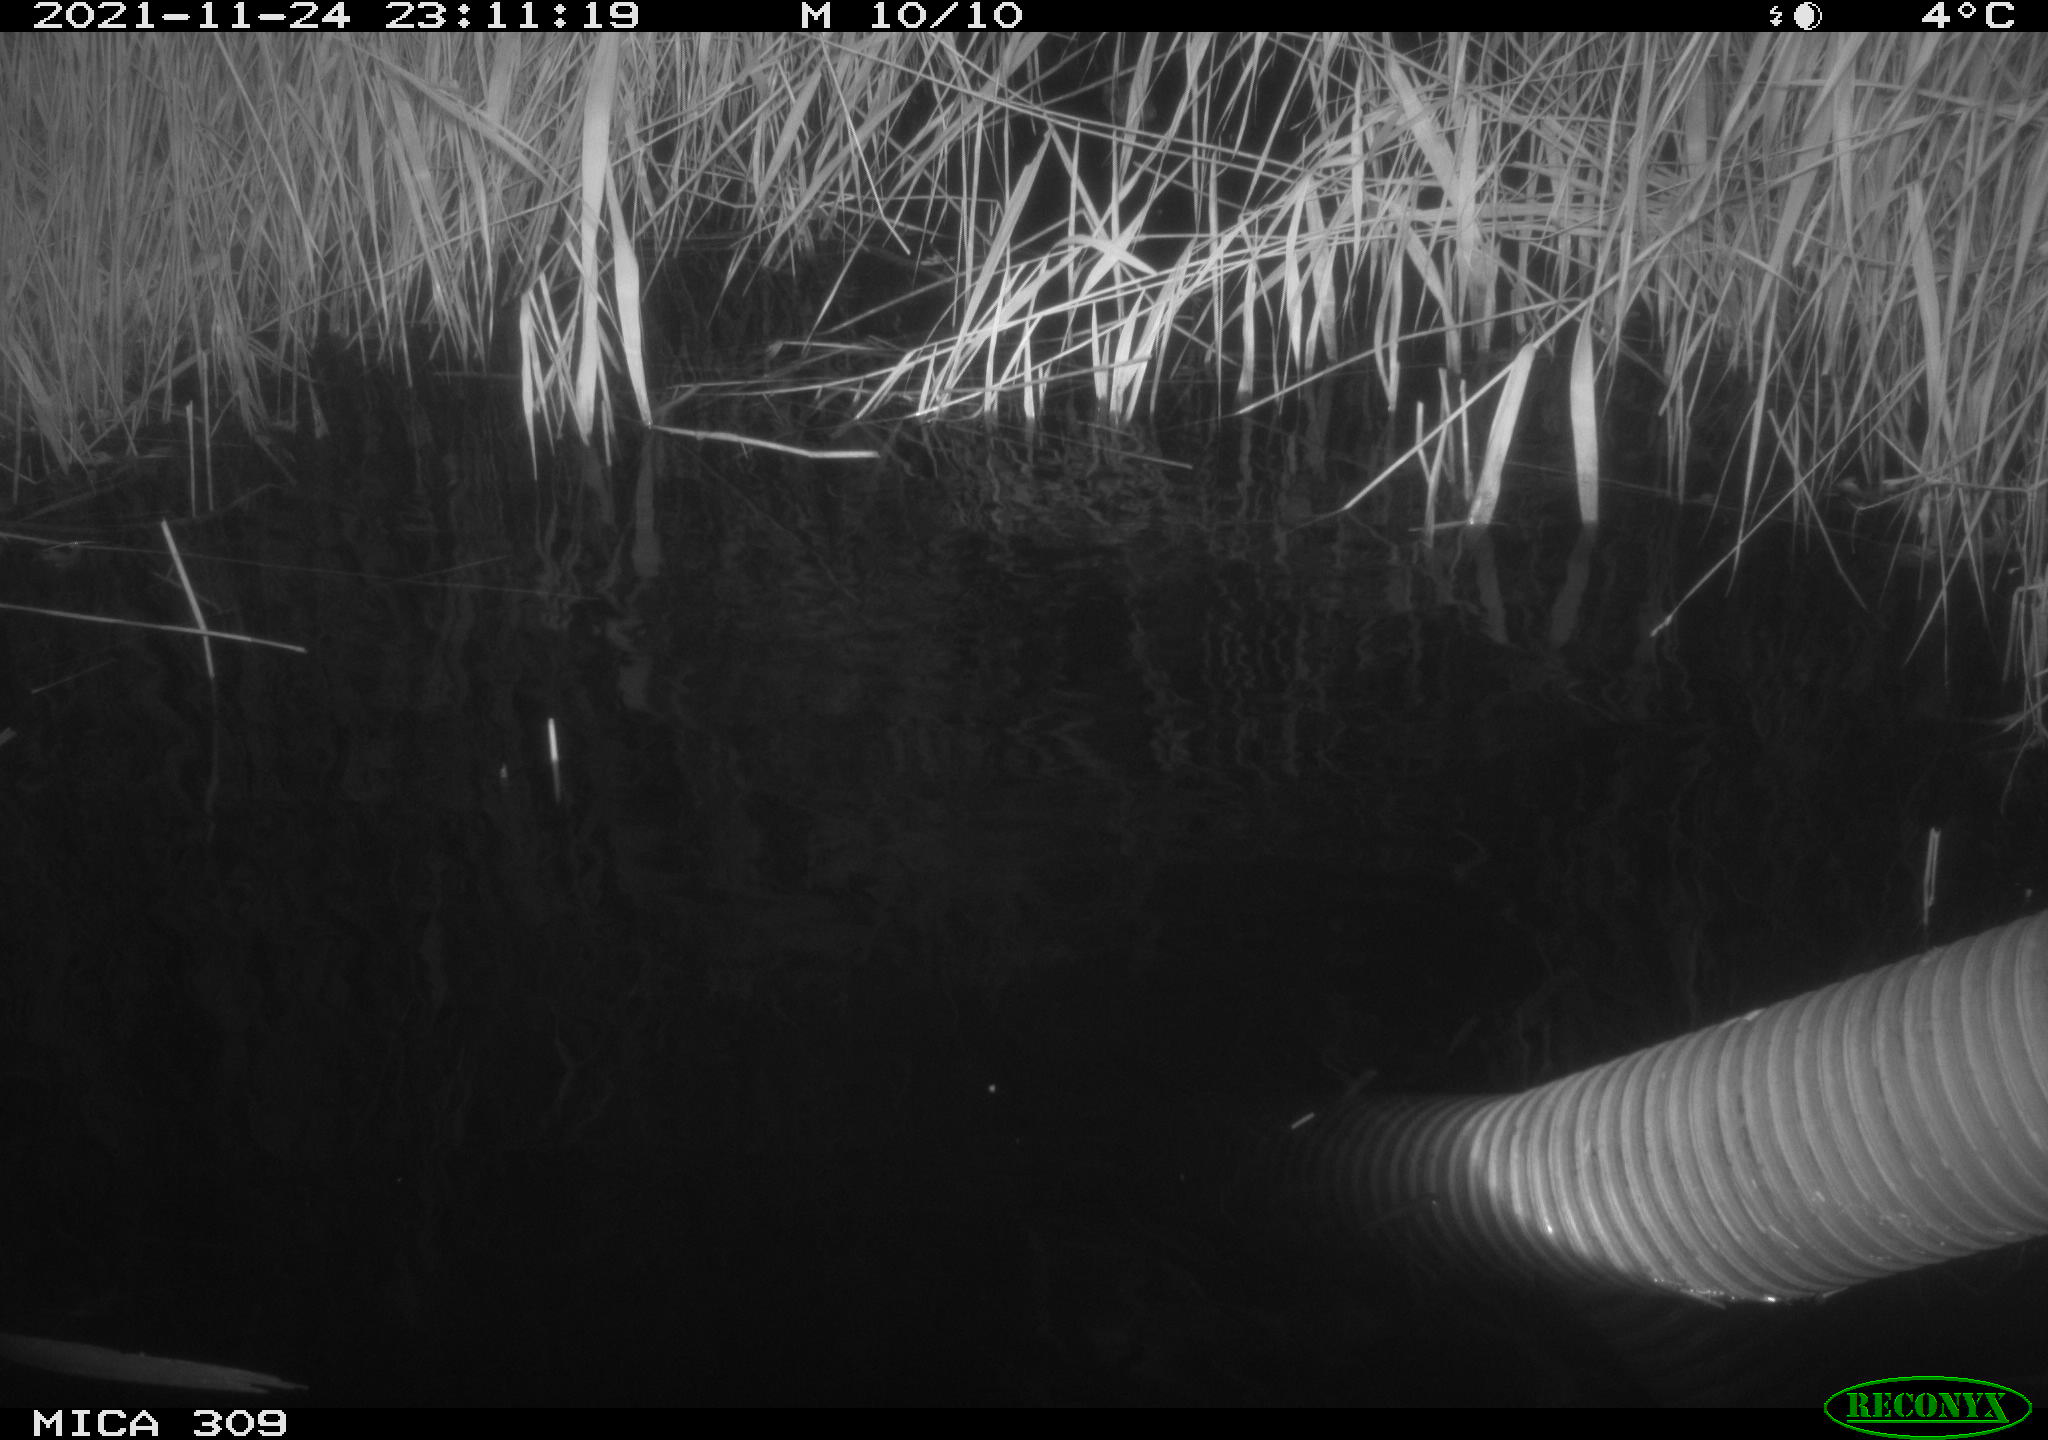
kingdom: Animalia
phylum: Chordata
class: Mammalia
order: Rodentia
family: Muridae
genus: Rattus
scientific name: Rattus norvegicus
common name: Brown rat
